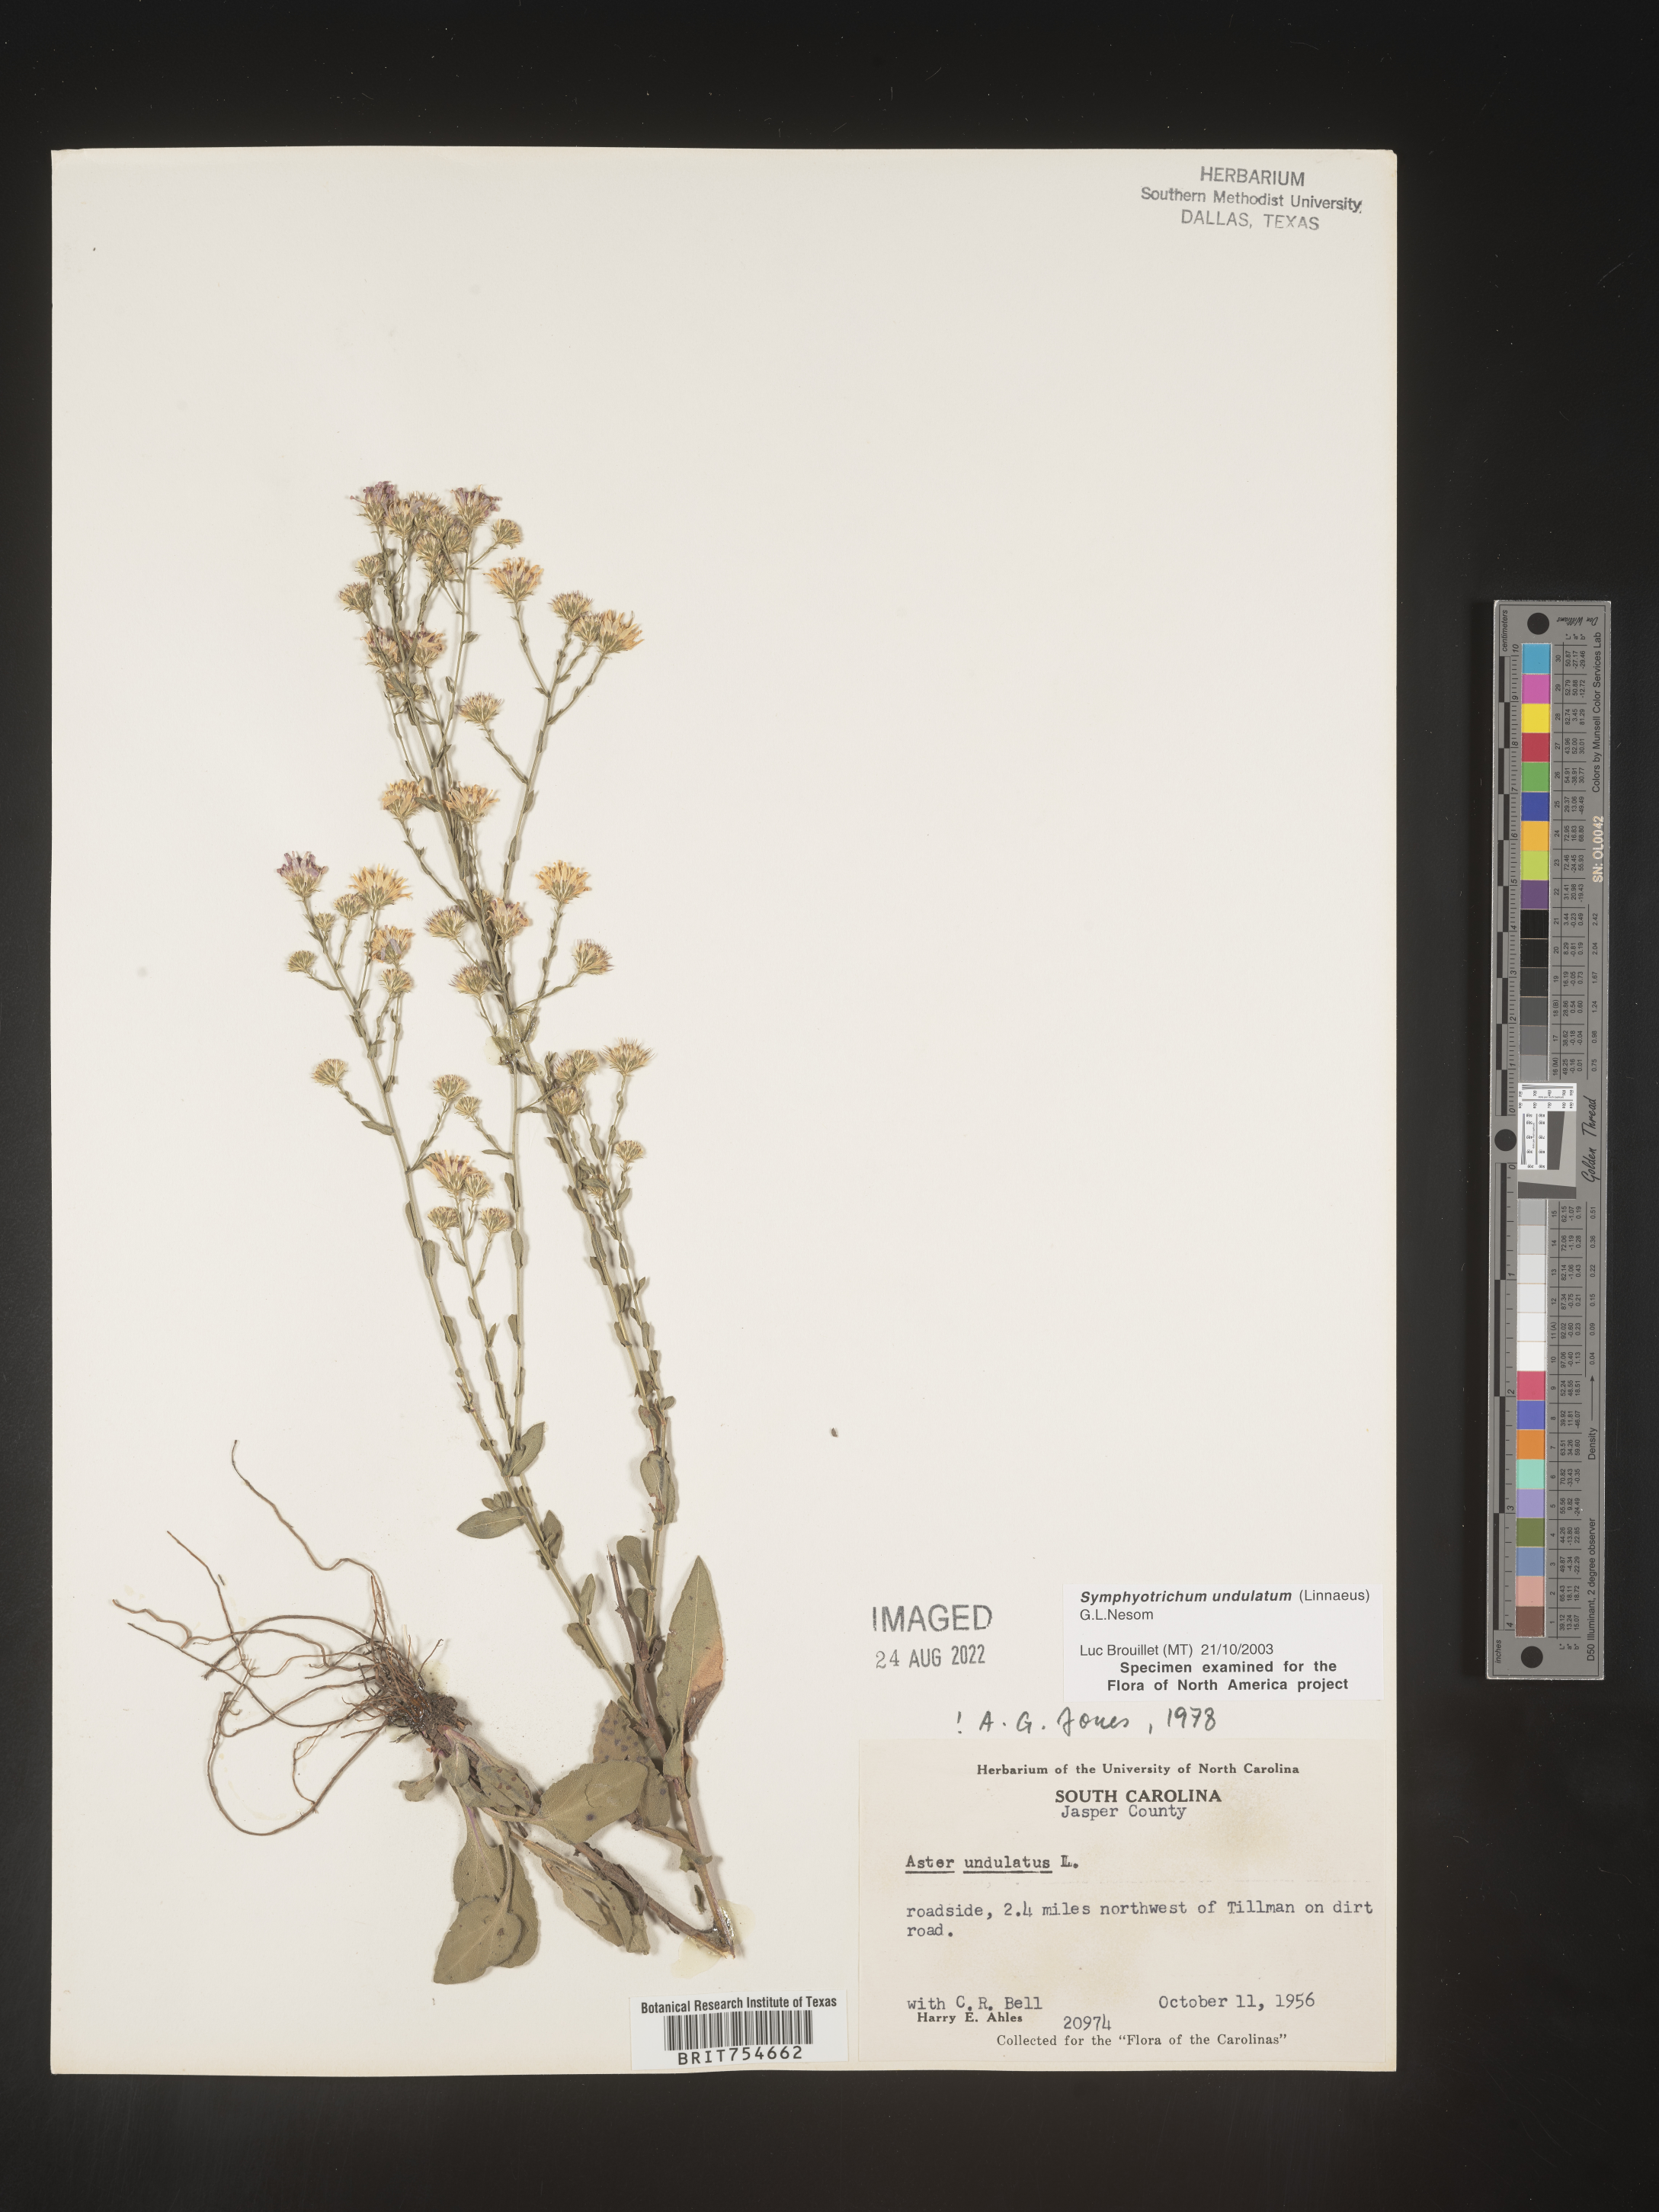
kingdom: Plantae
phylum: Tracheophyta
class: Magnoliopsida
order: Asterales
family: Asteraceae
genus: Symphyotrichum
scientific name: Symphyotrichum undulatum
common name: Clasping heart-leaf aster
